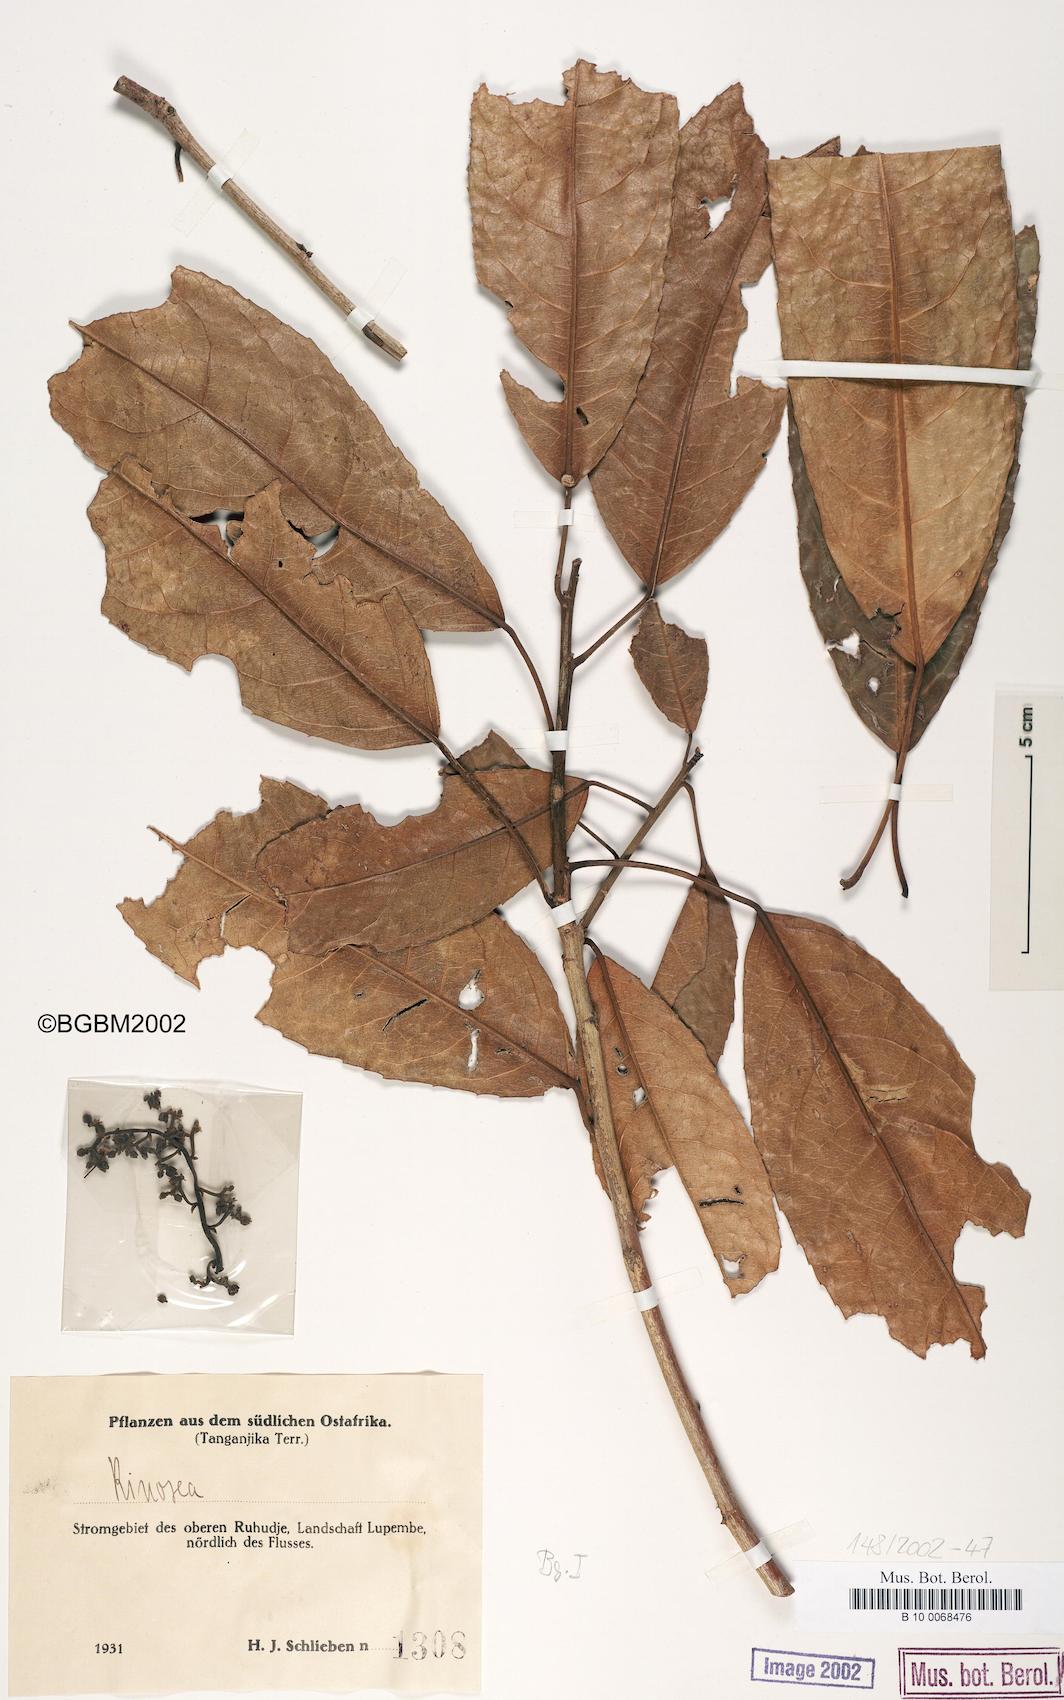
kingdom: Plantae
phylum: Tracheophyta
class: Magnoliopsida
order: Malpighiales
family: Violaceae
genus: Rinorea
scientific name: Rinorea
